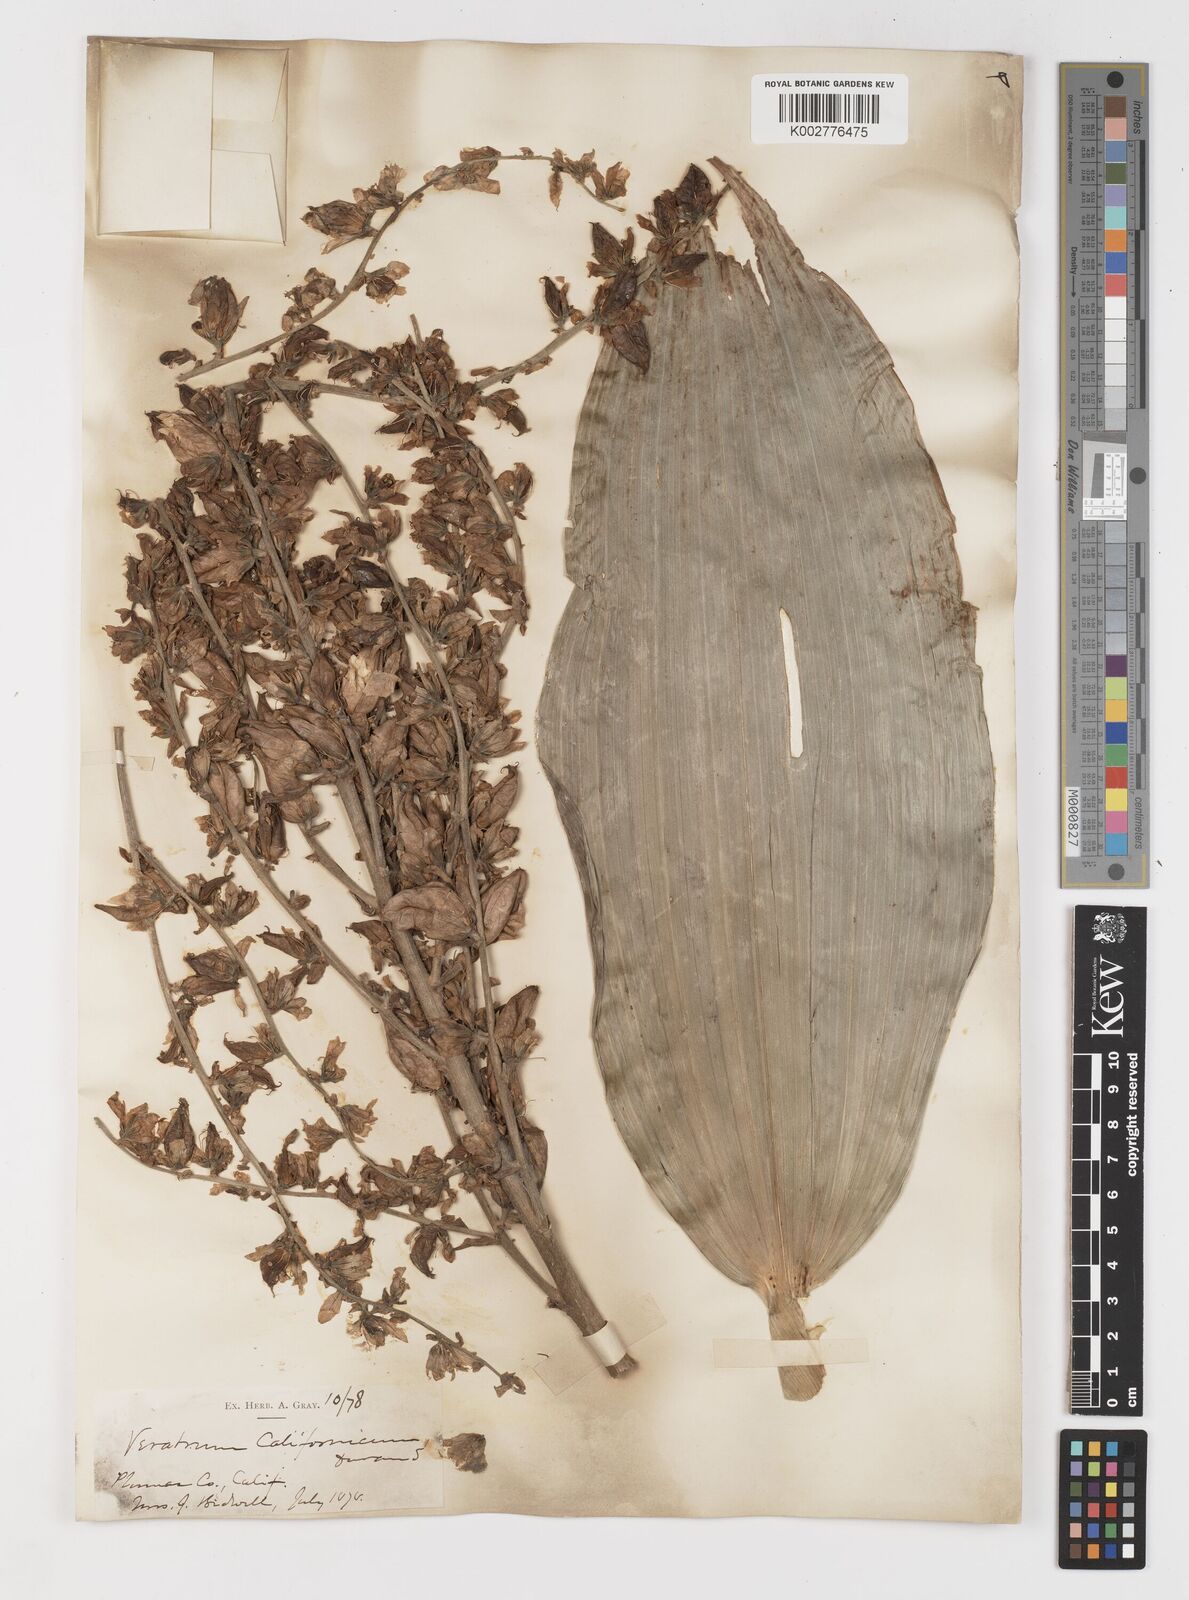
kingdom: Plantae
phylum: Tracheophyta
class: Liliopsida
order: Liliales
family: Melanthiaceae
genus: Veratrum
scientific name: Veratrum californicum
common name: California veratrum
